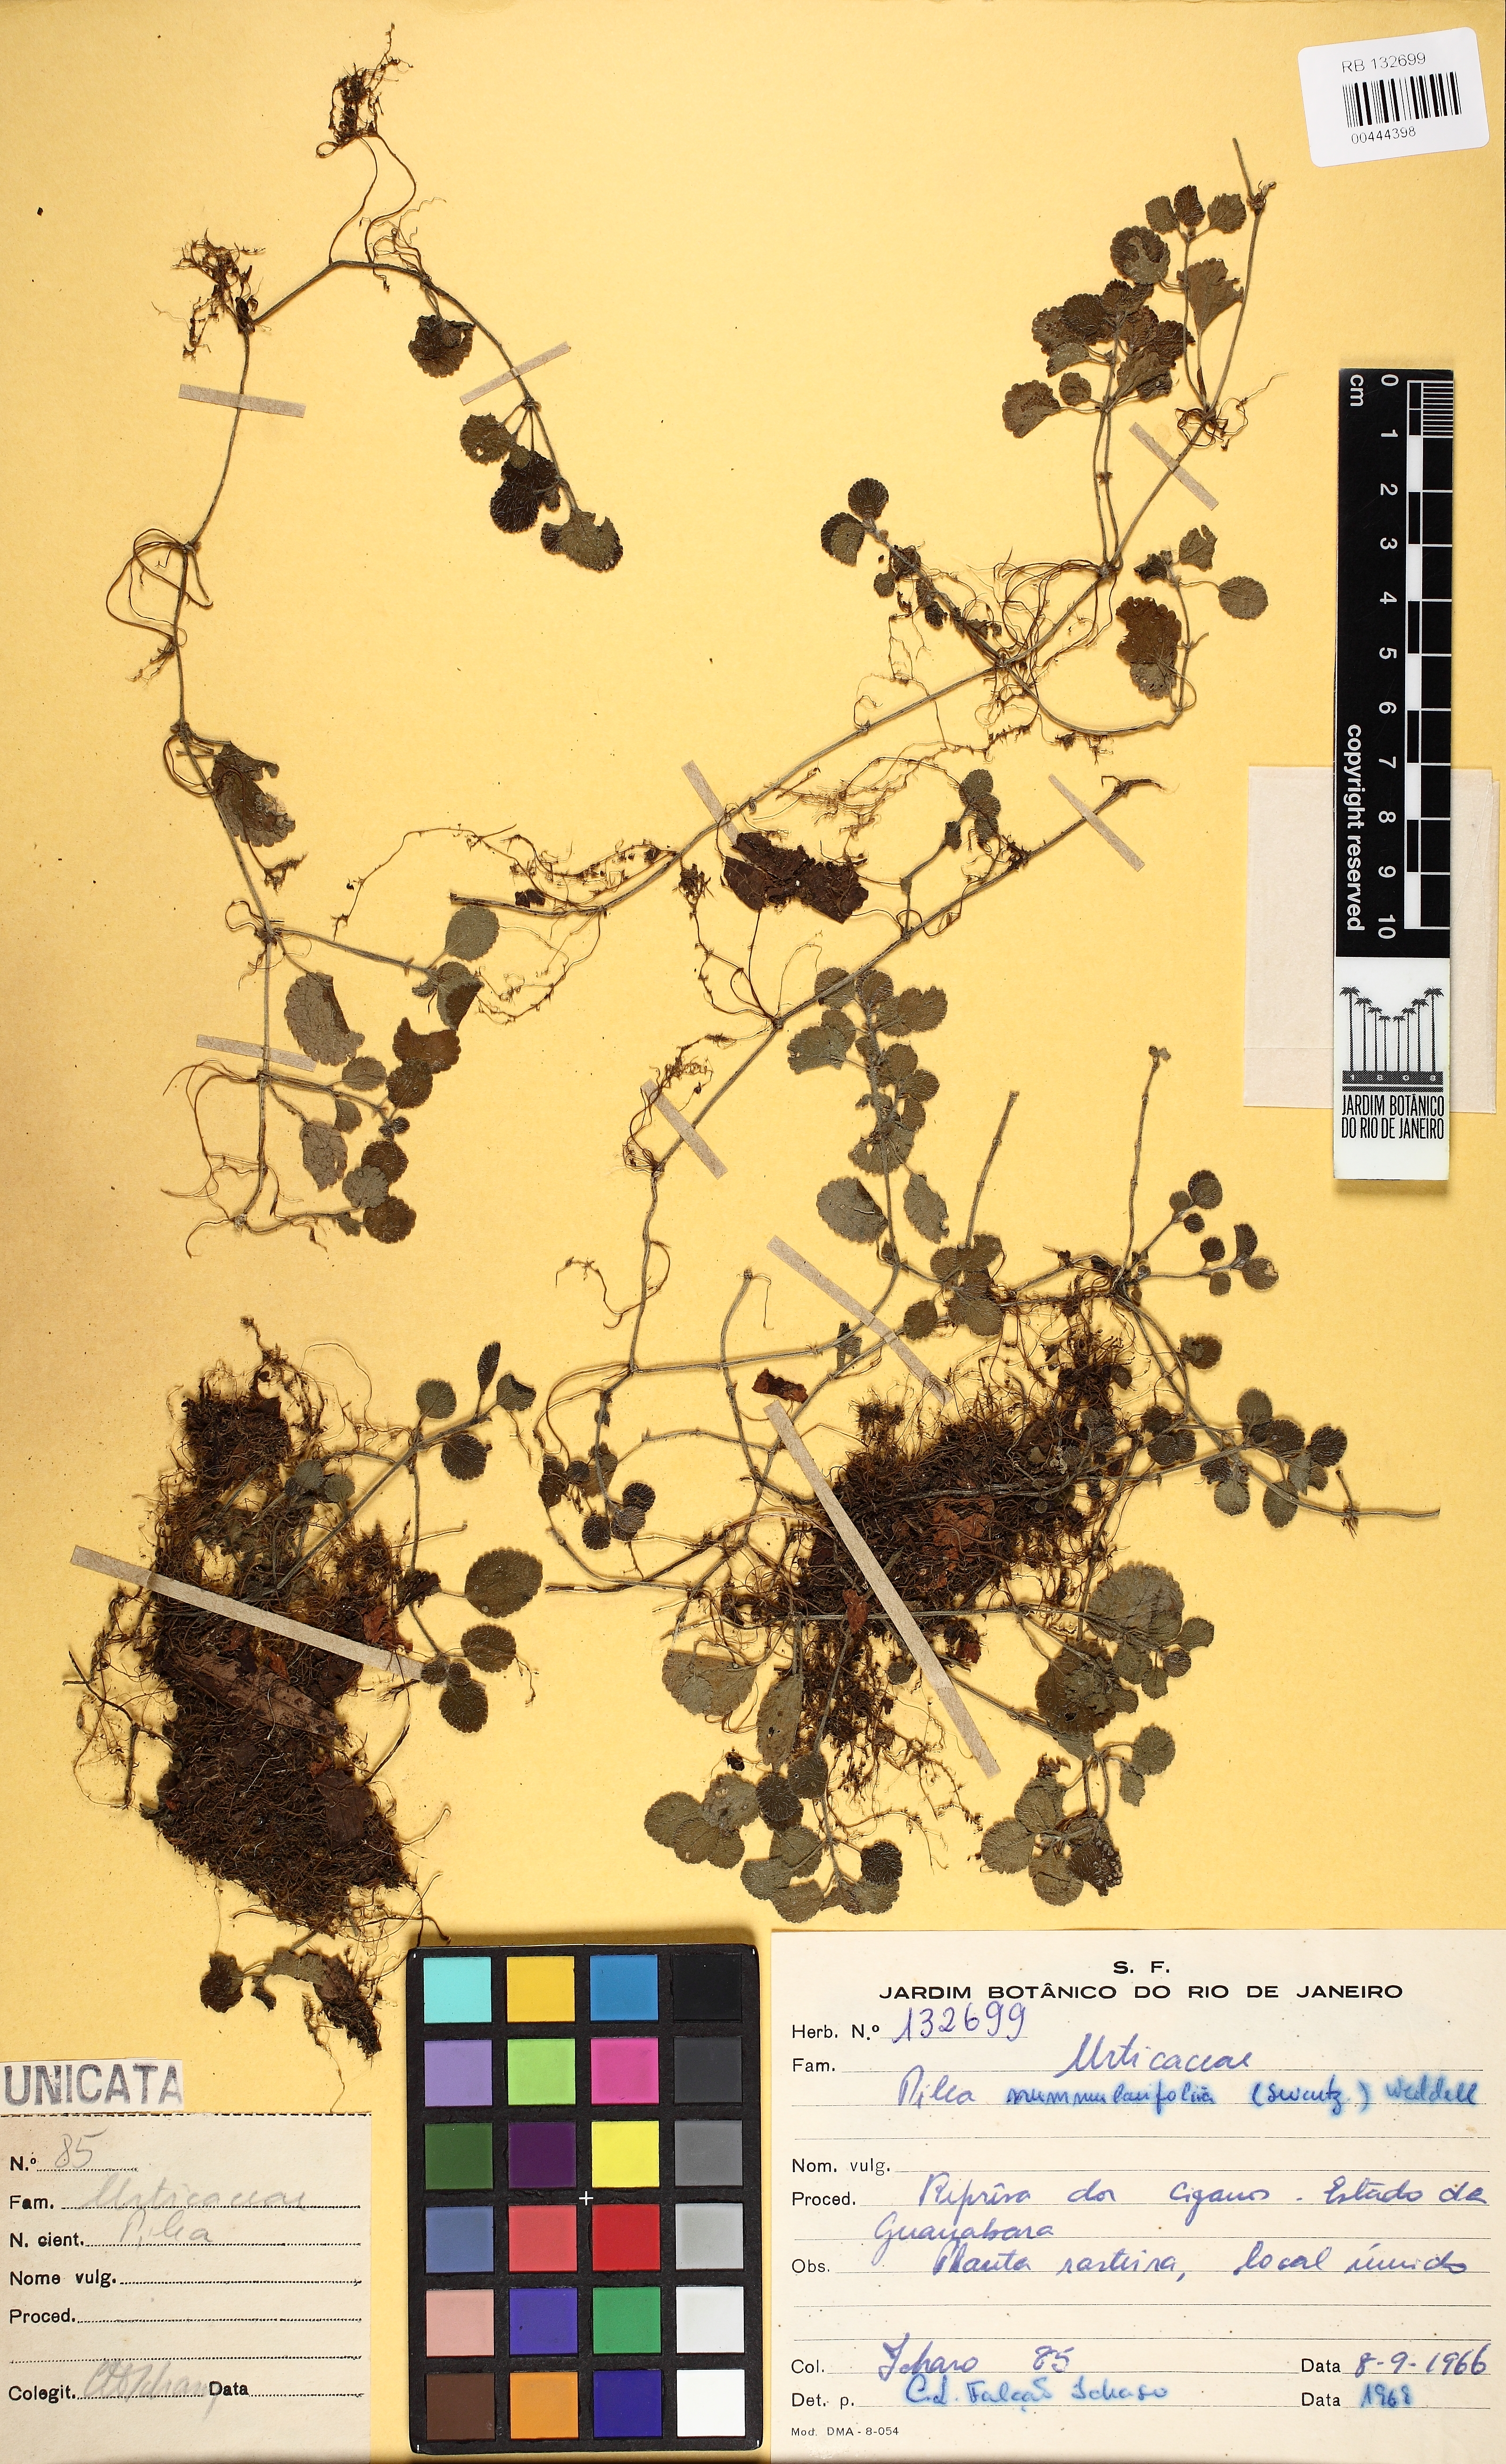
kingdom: Plantae
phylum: Tracheophyta
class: Magnoliopsida
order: Rosales
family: Urticaceae
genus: Pilea
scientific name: Pilea nummulariifolia
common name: Creeping-charlie
